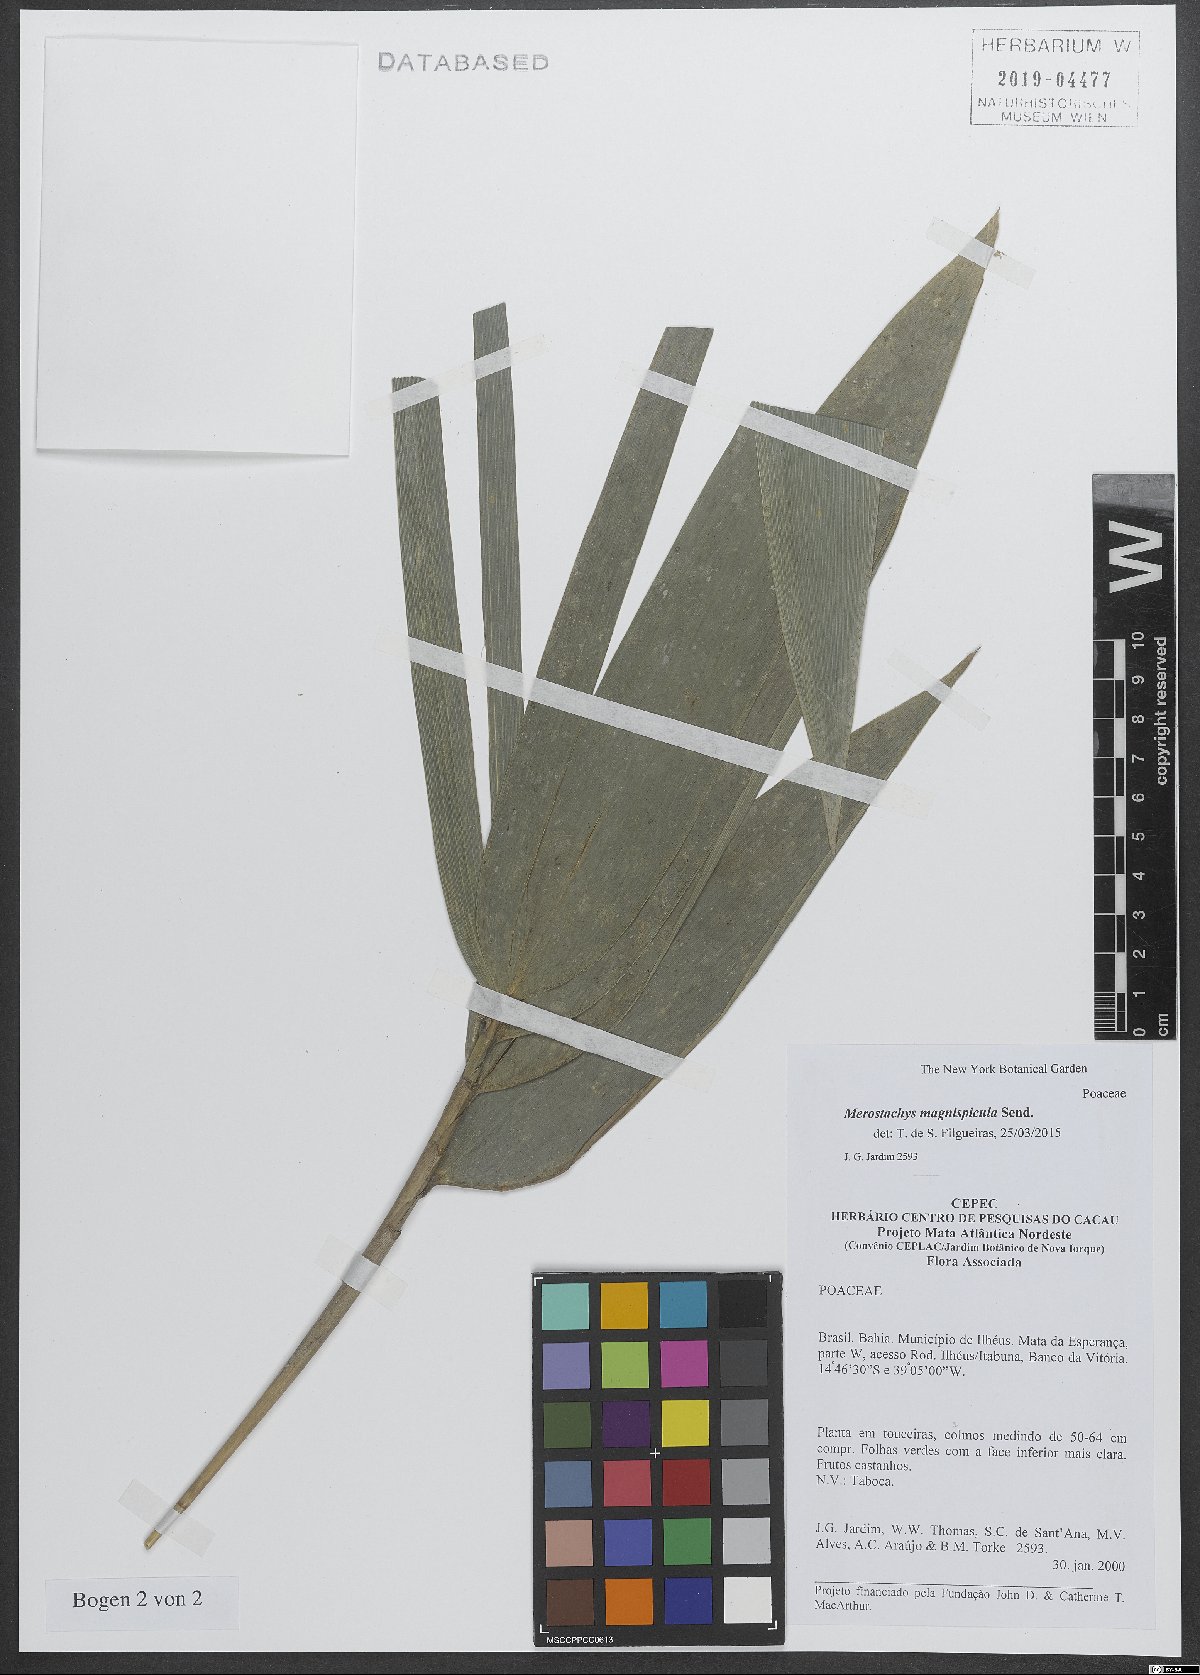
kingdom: Plantae
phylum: Tracheophyta
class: Liliopsida
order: Poales
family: Poaceae
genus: Merostachys
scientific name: Merostachys magnispicula
